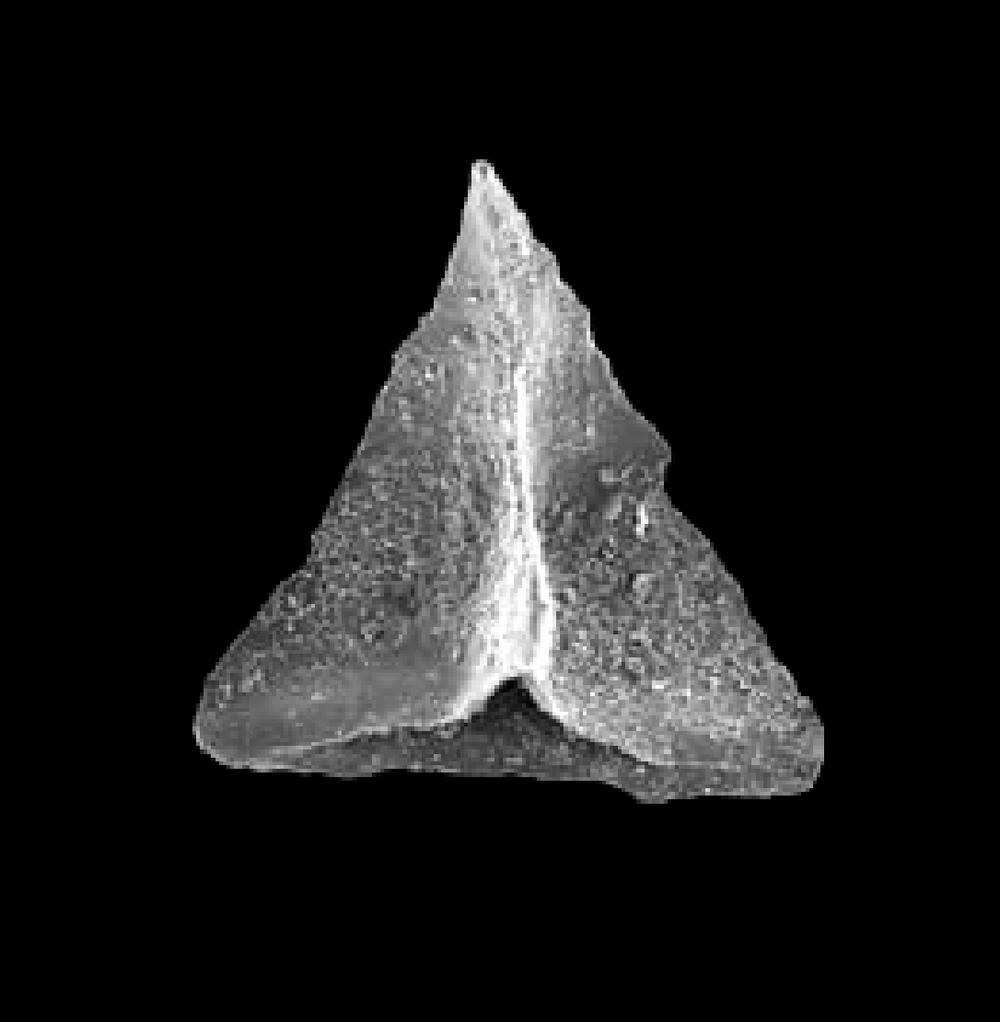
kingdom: Animalia
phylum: Chordata
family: Oistodontidae
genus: Oistodus
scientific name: Oistodus lanceolatus
